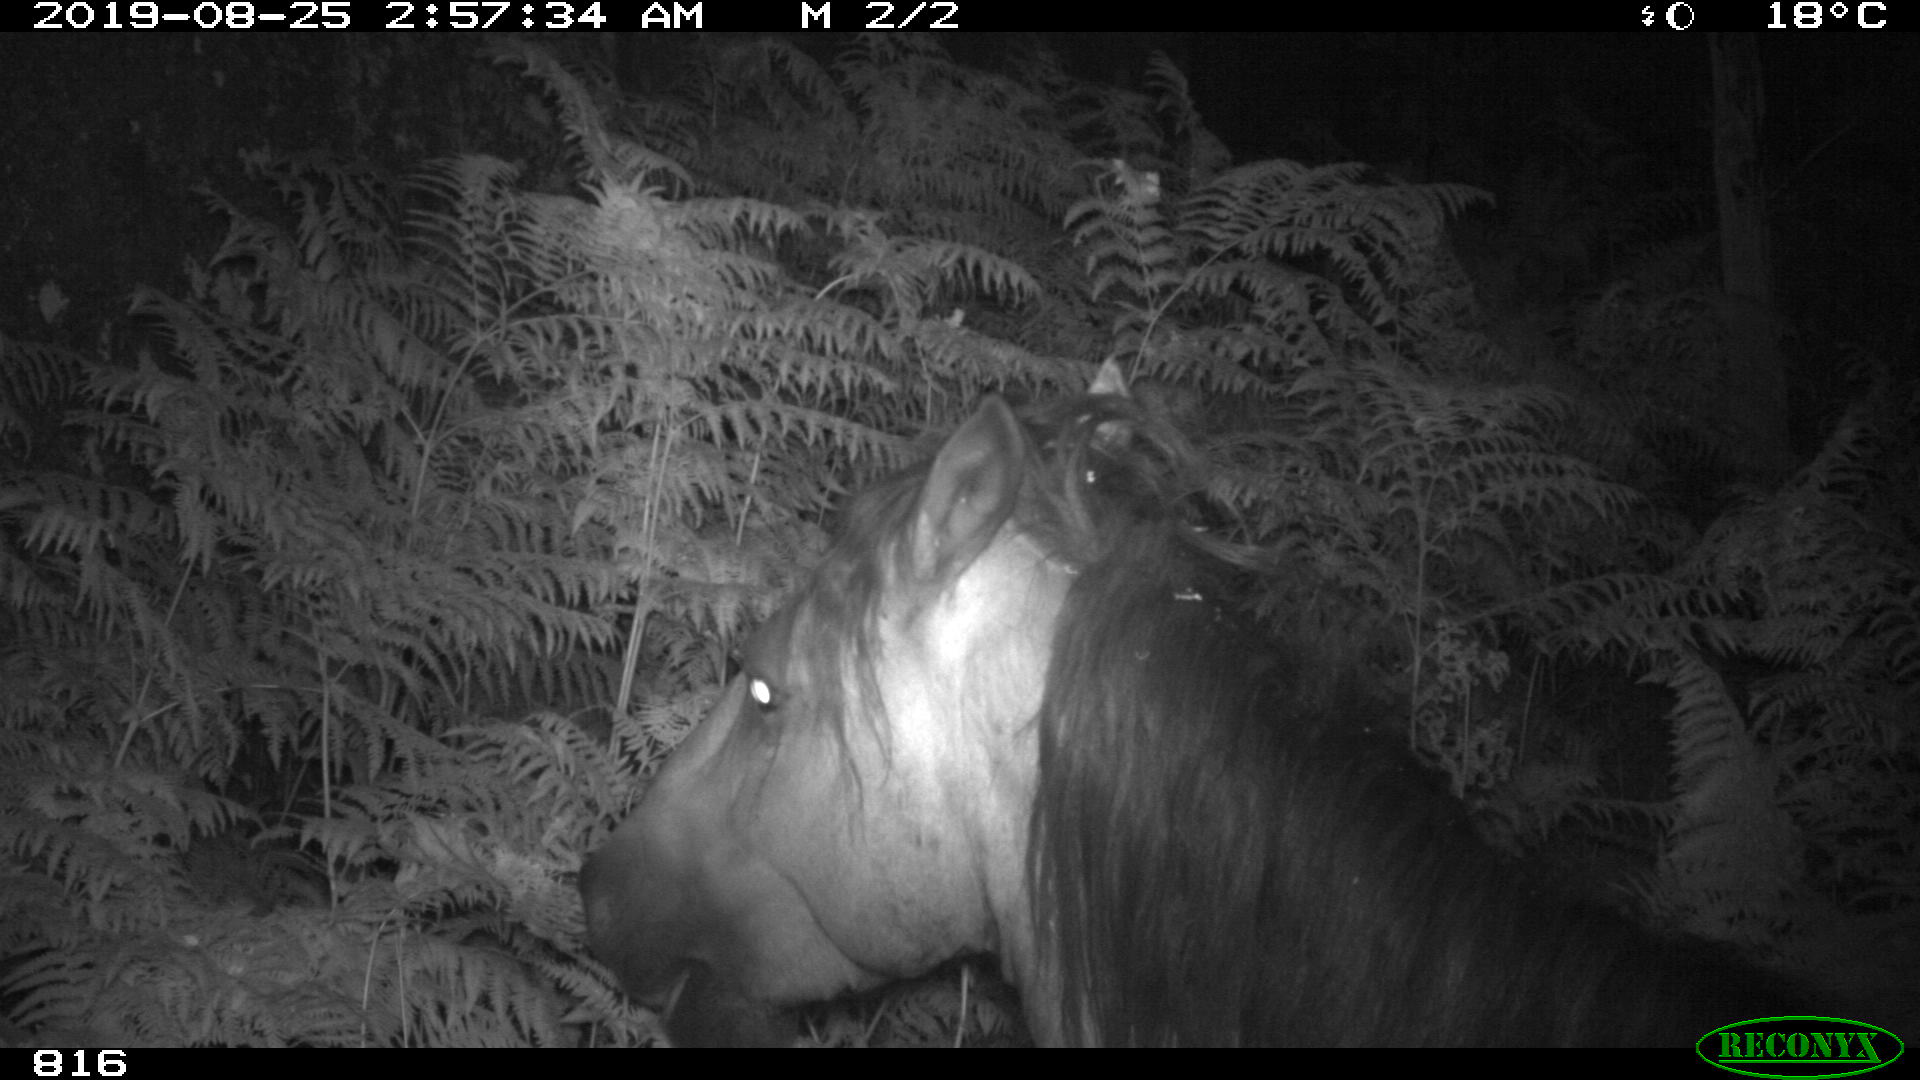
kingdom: Animalia
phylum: Chordata
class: Mammalia
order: Perissodactyla
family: Equidae
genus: Equus
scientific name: Equus caballus
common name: Horse
